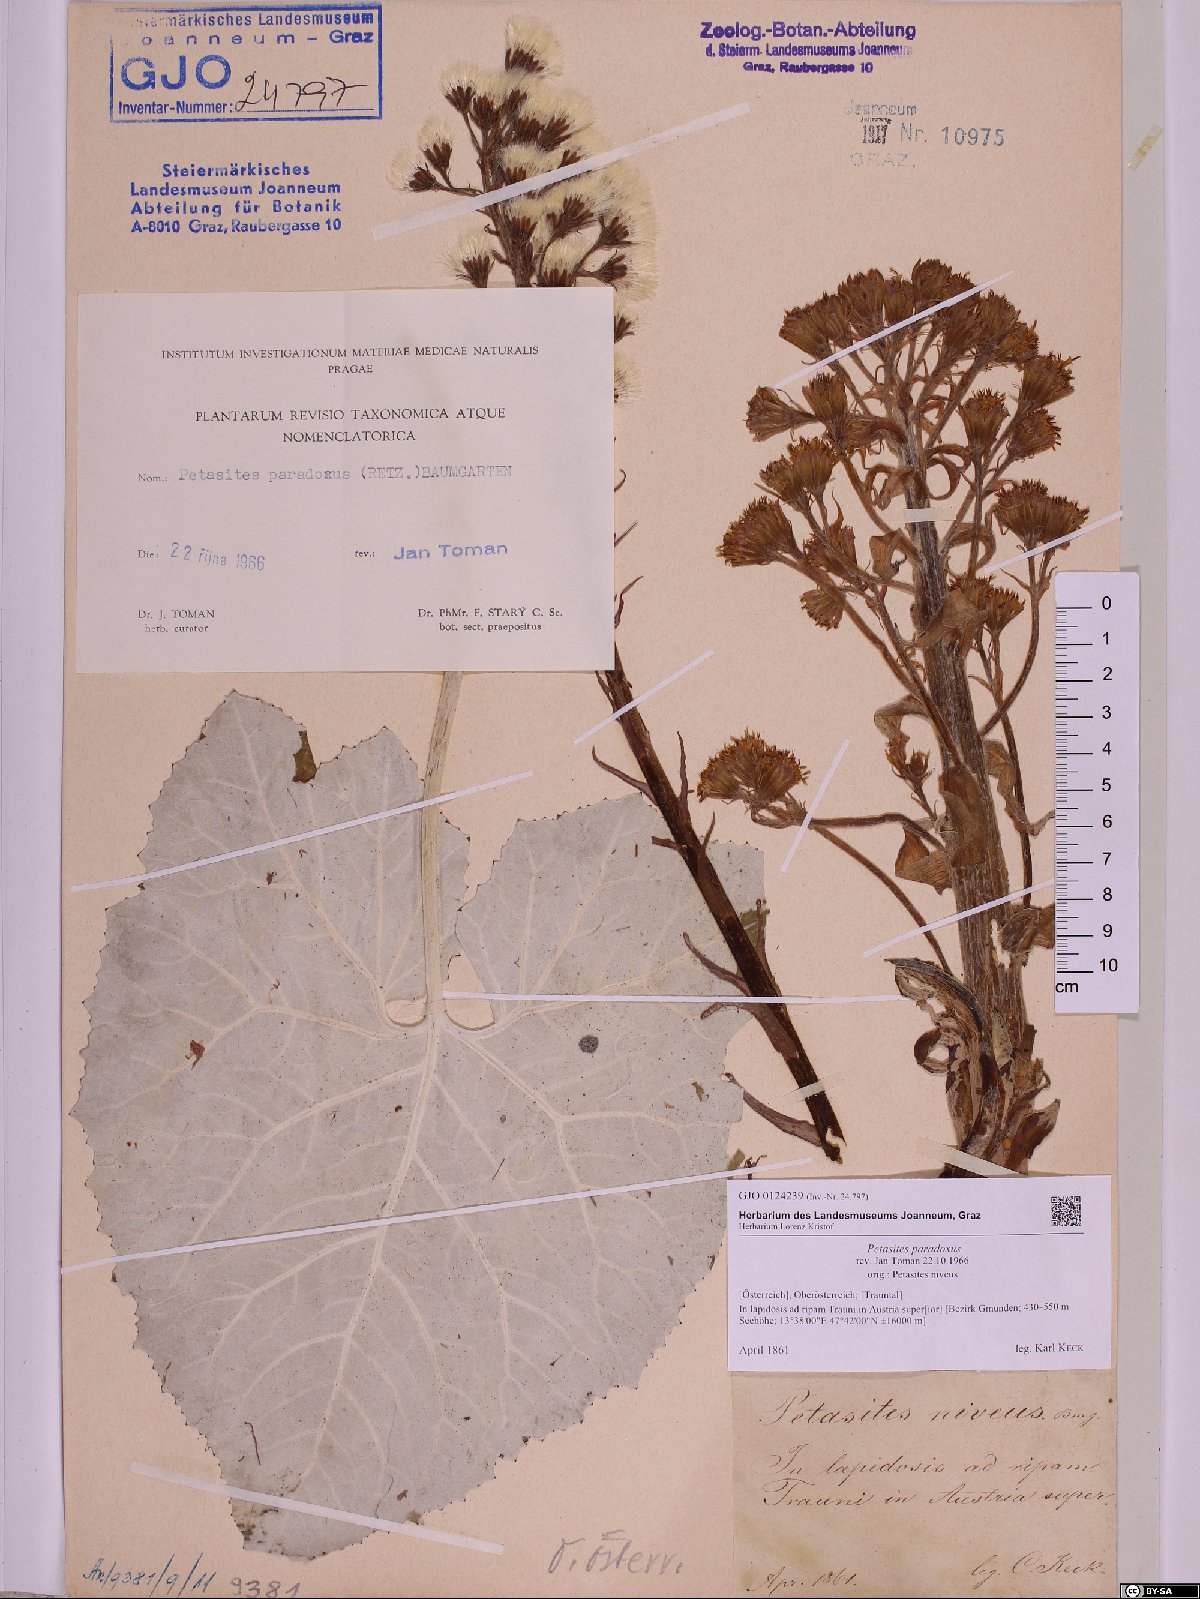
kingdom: Plantae
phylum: Tracheophyta
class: Magnoliopsida
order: Asterales
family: Asteraceae
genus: Petasites
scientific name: Petasites paradoxus
